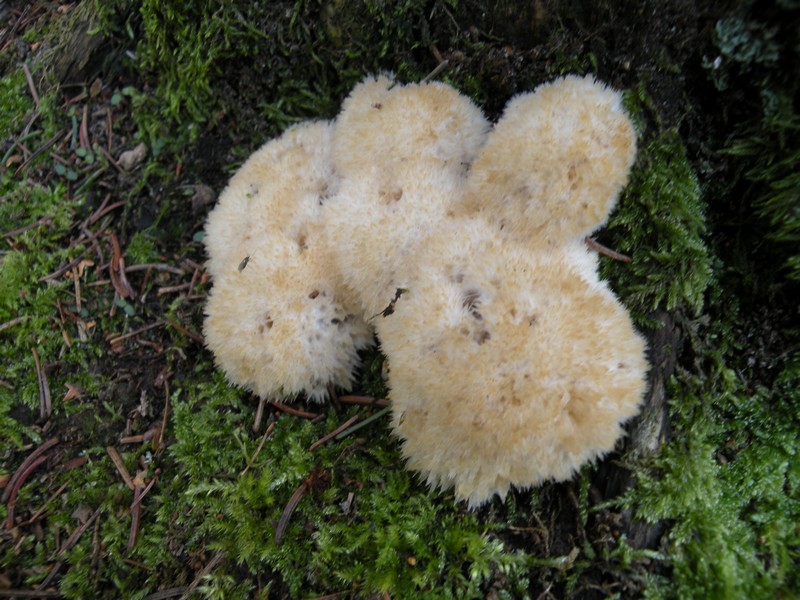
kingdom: Fungi
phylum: Basidiomycota
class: Agaricomycetes
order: Polyporales
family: Dacryobolaceae
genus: Postia
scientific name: Postia ptychogaster
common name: støvende kødporesvamp
